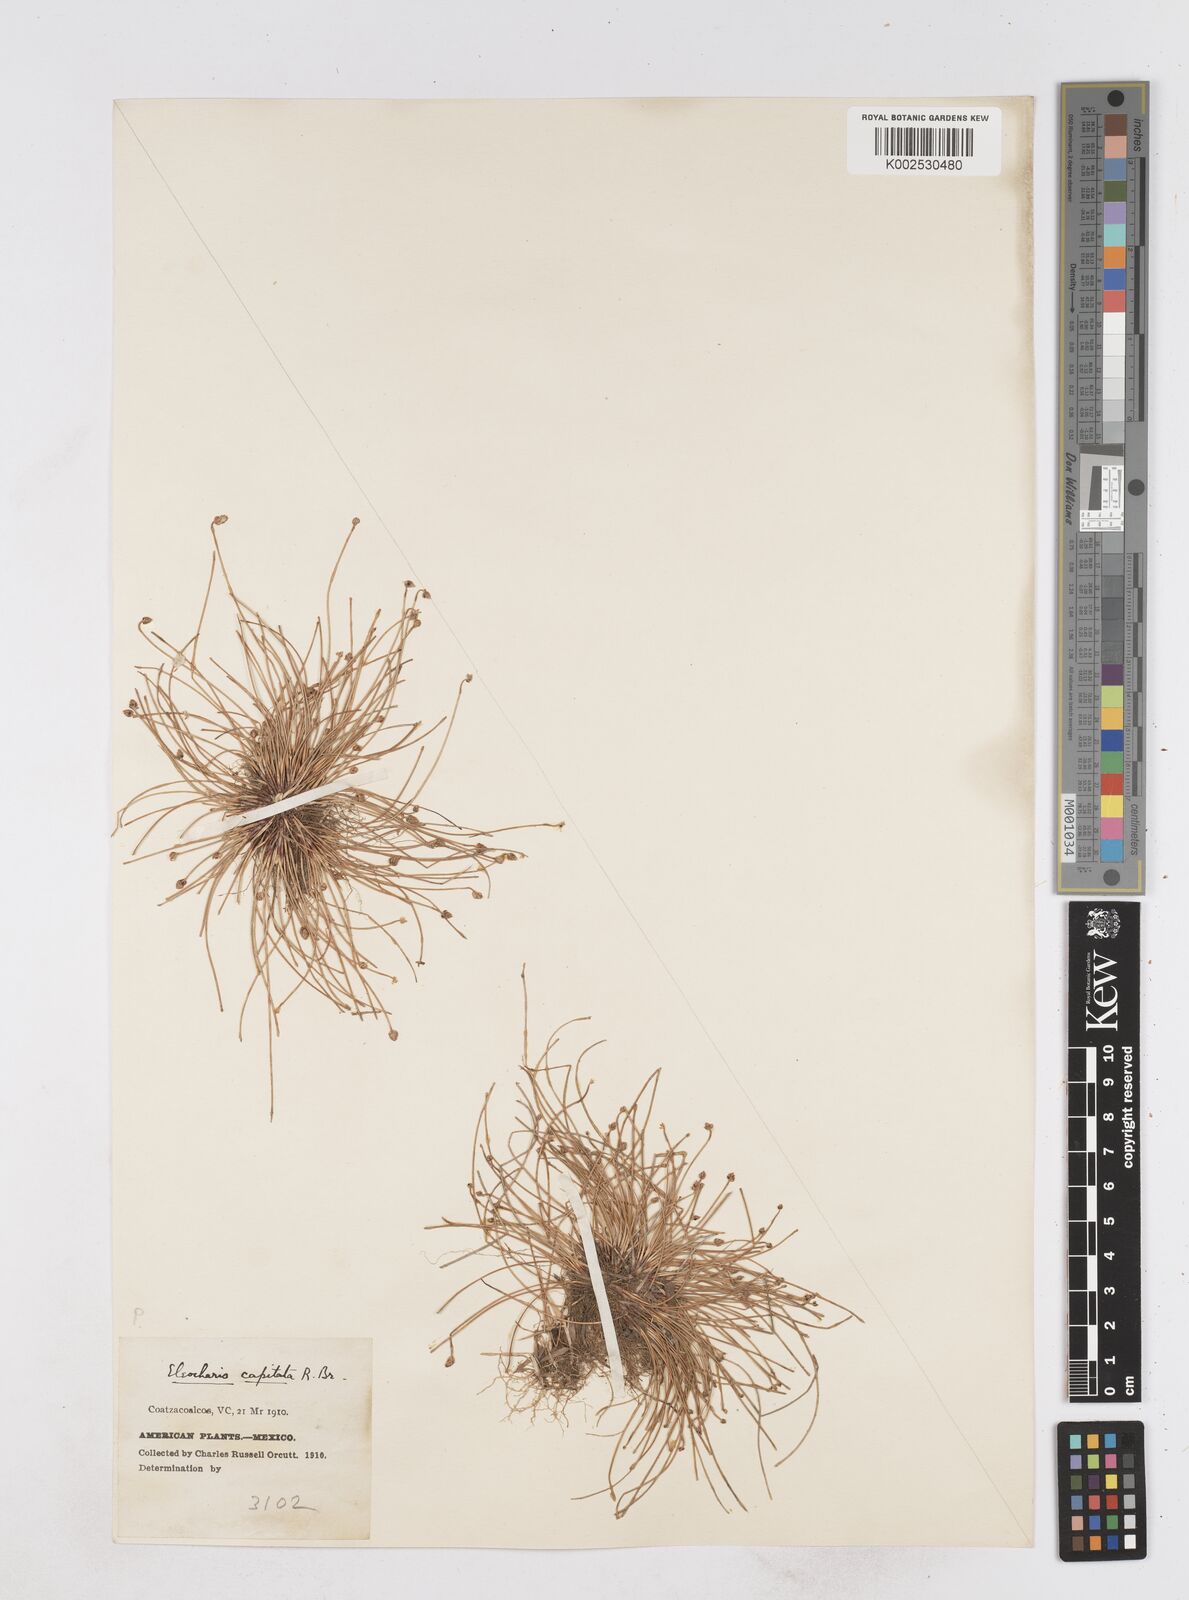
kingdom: Plantae
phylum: Tracheophyta
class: Liliopsida
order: Poales
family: Cyperaceae
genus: Eleocharis
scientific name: Eleocharis geniculata
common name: Canada spikesedge
